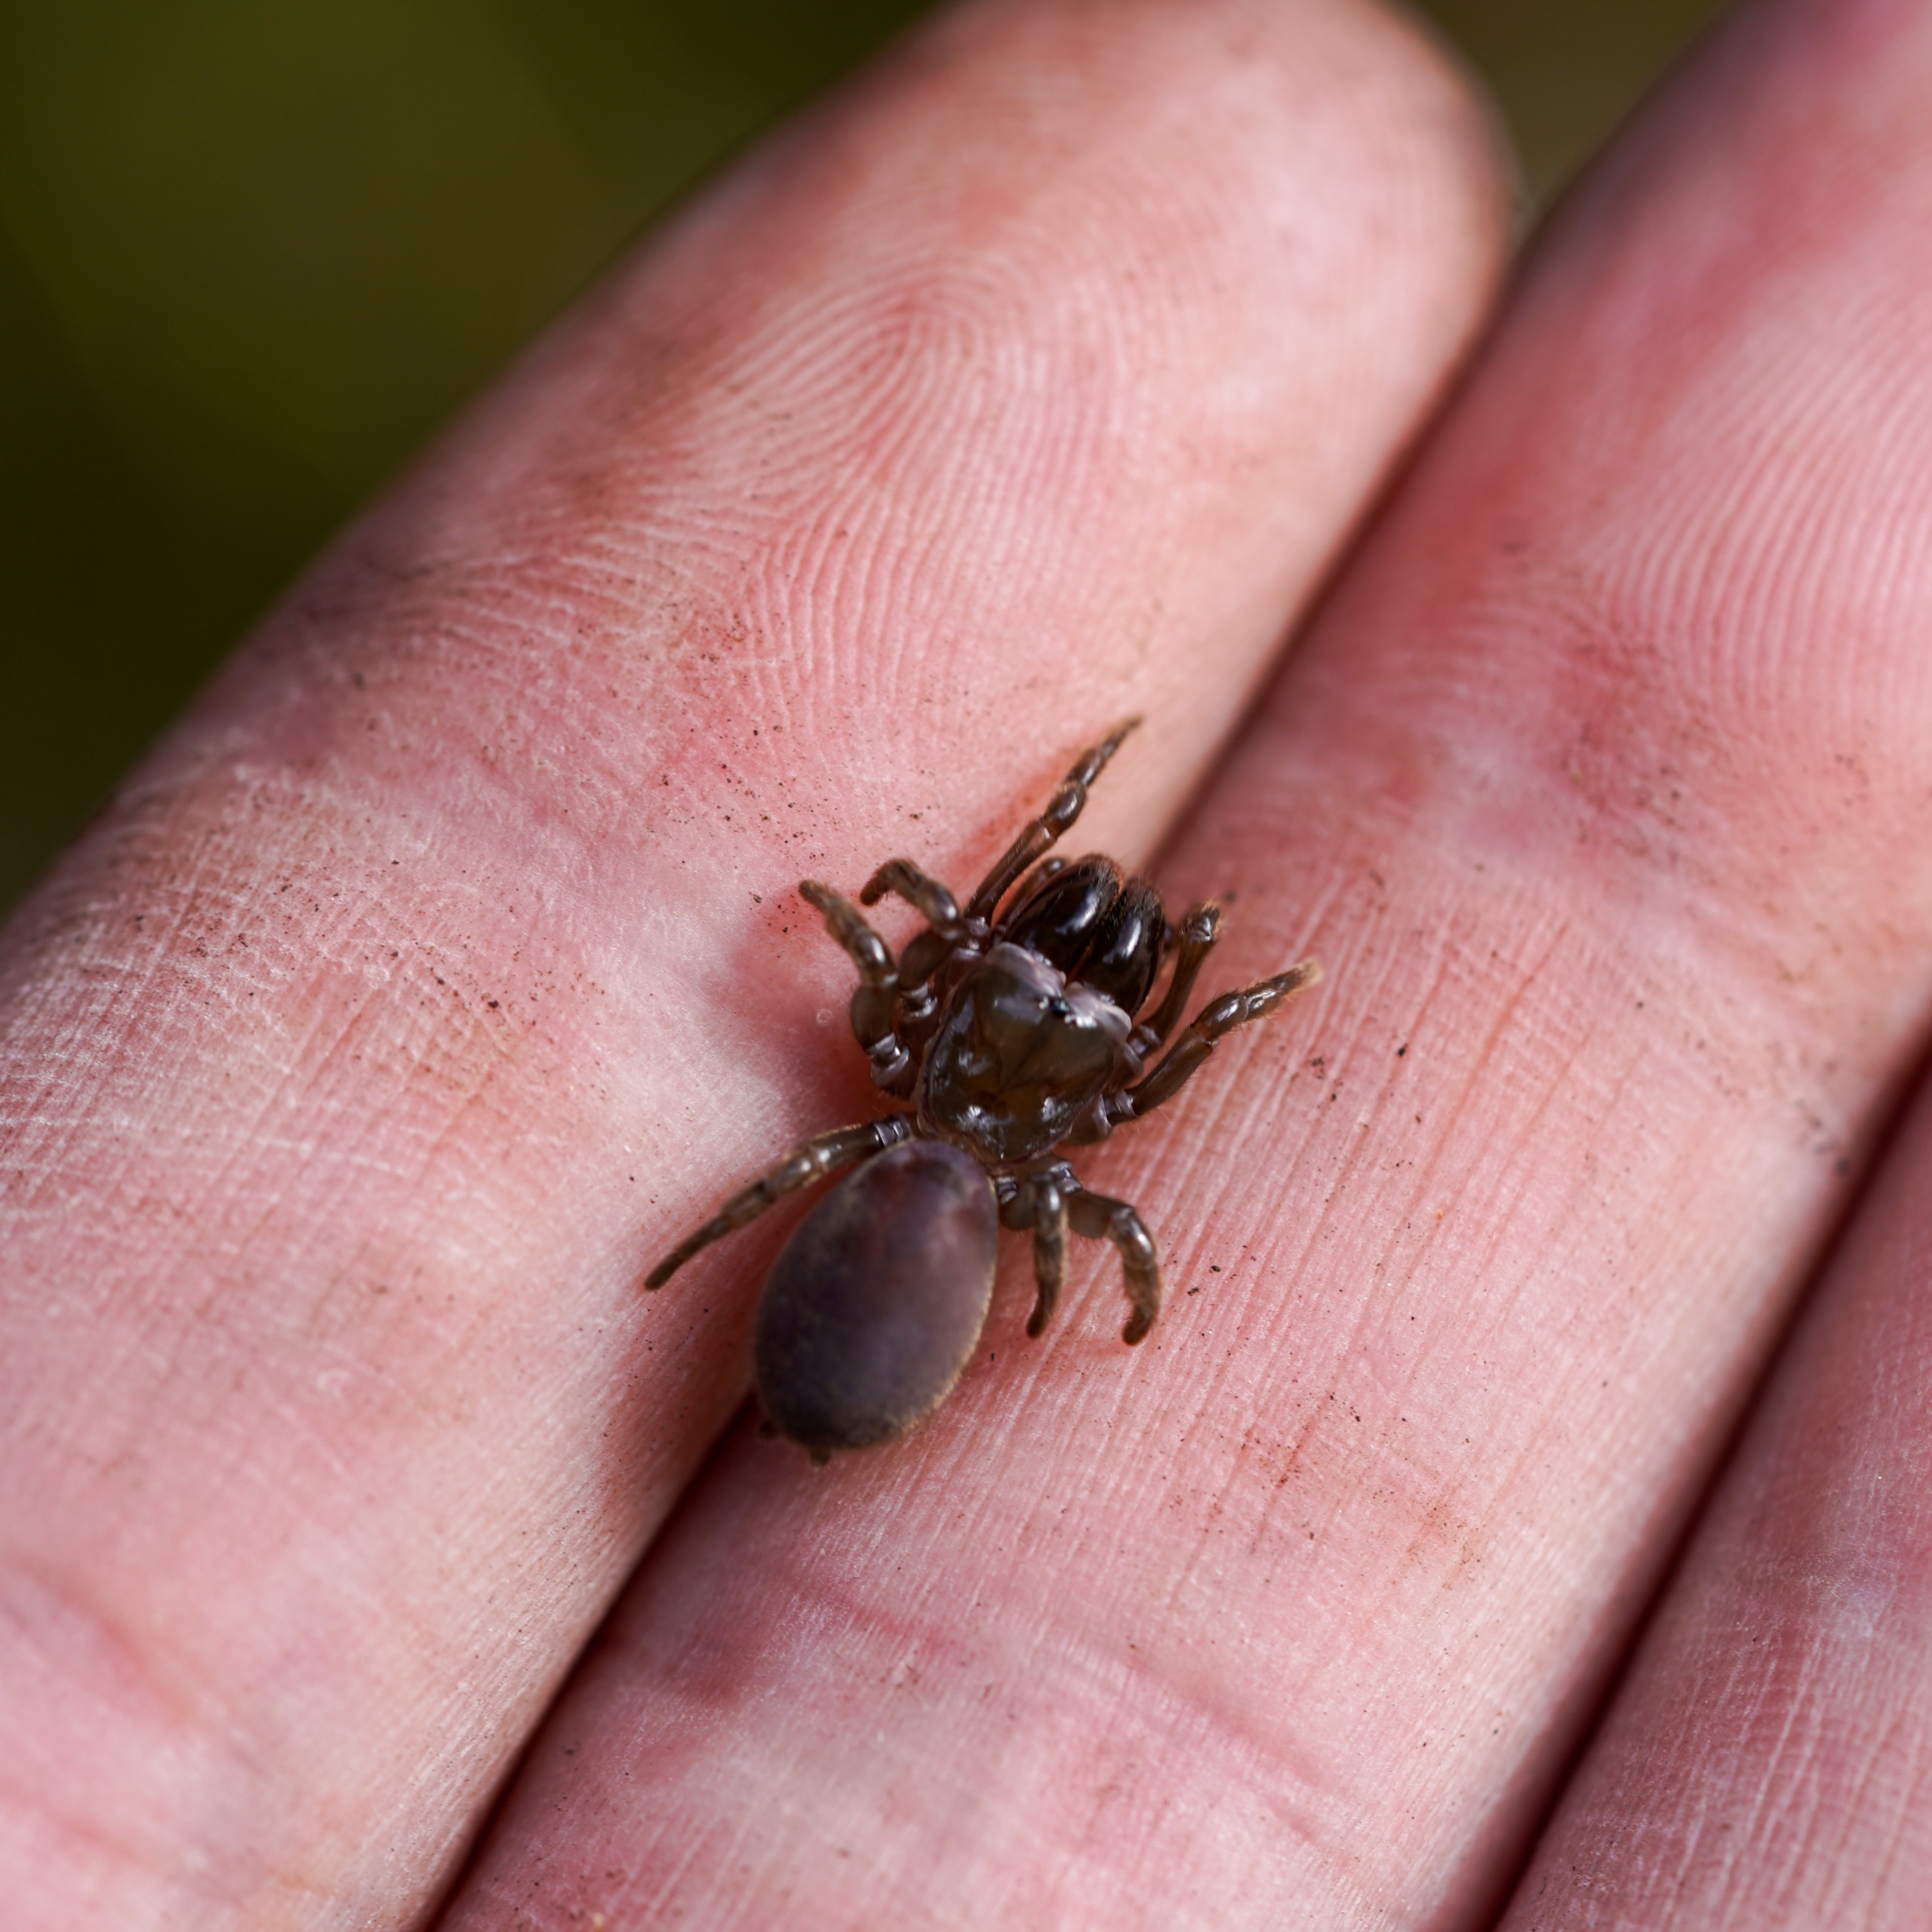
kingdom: Animalia
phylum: Arthropoda
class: Arachnida
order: Araneae
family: Atypidae
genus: Atypus
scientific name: Atypus affinis
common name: Nordlig fugleedderkop
